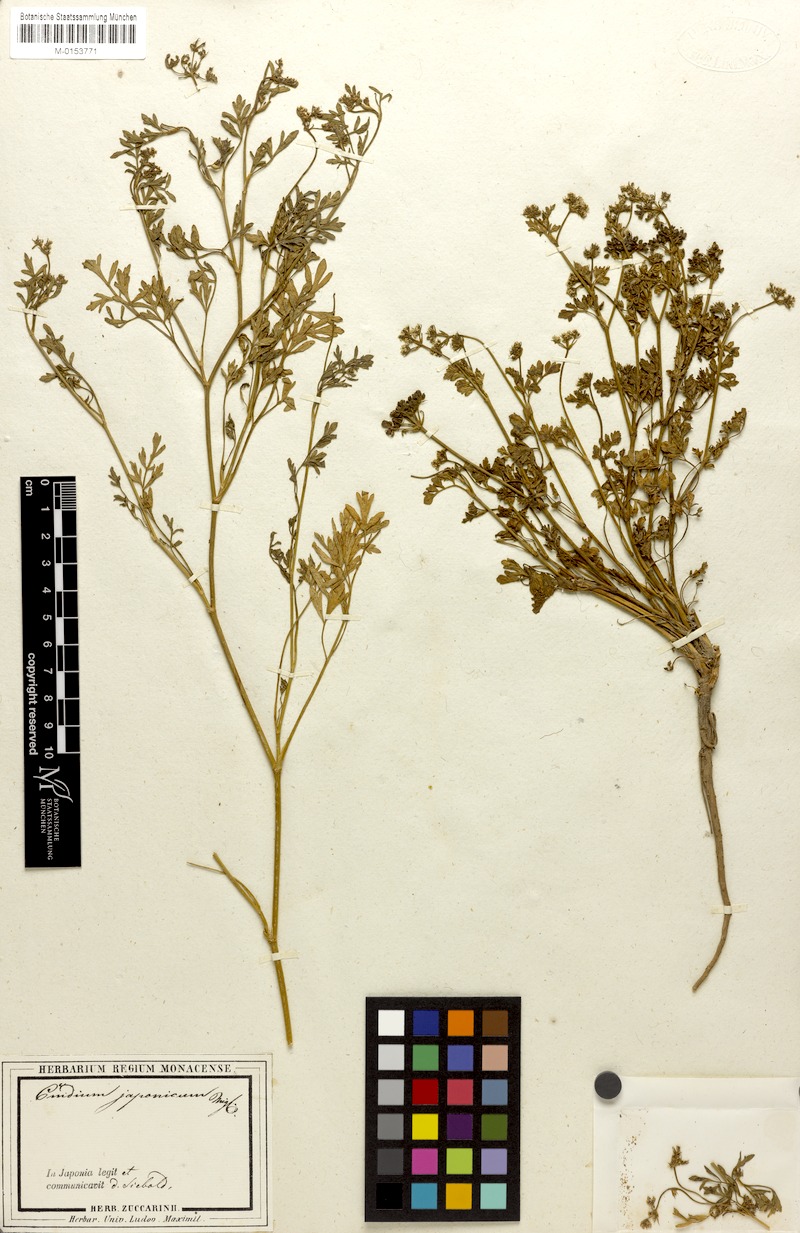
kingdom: Plantae
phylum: Tracheophyta
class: Magnoliopsida
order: Apiales
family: Apiaceae
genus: Cnidium
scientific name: Cnidium japonicum
